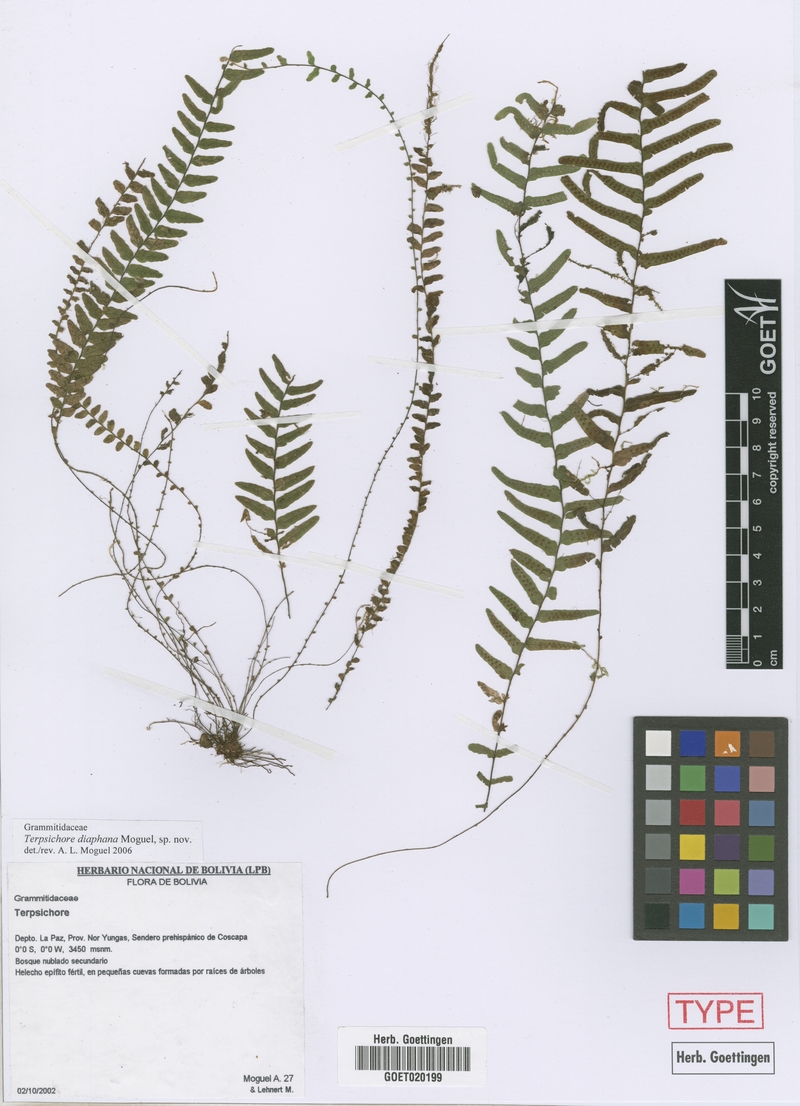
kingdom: Plantae
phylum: Tracheophyta
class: Polypodiopsida
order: Polypodiales
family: Polypodiaceae
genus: Alansmia
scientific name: Alansmia diaphana
